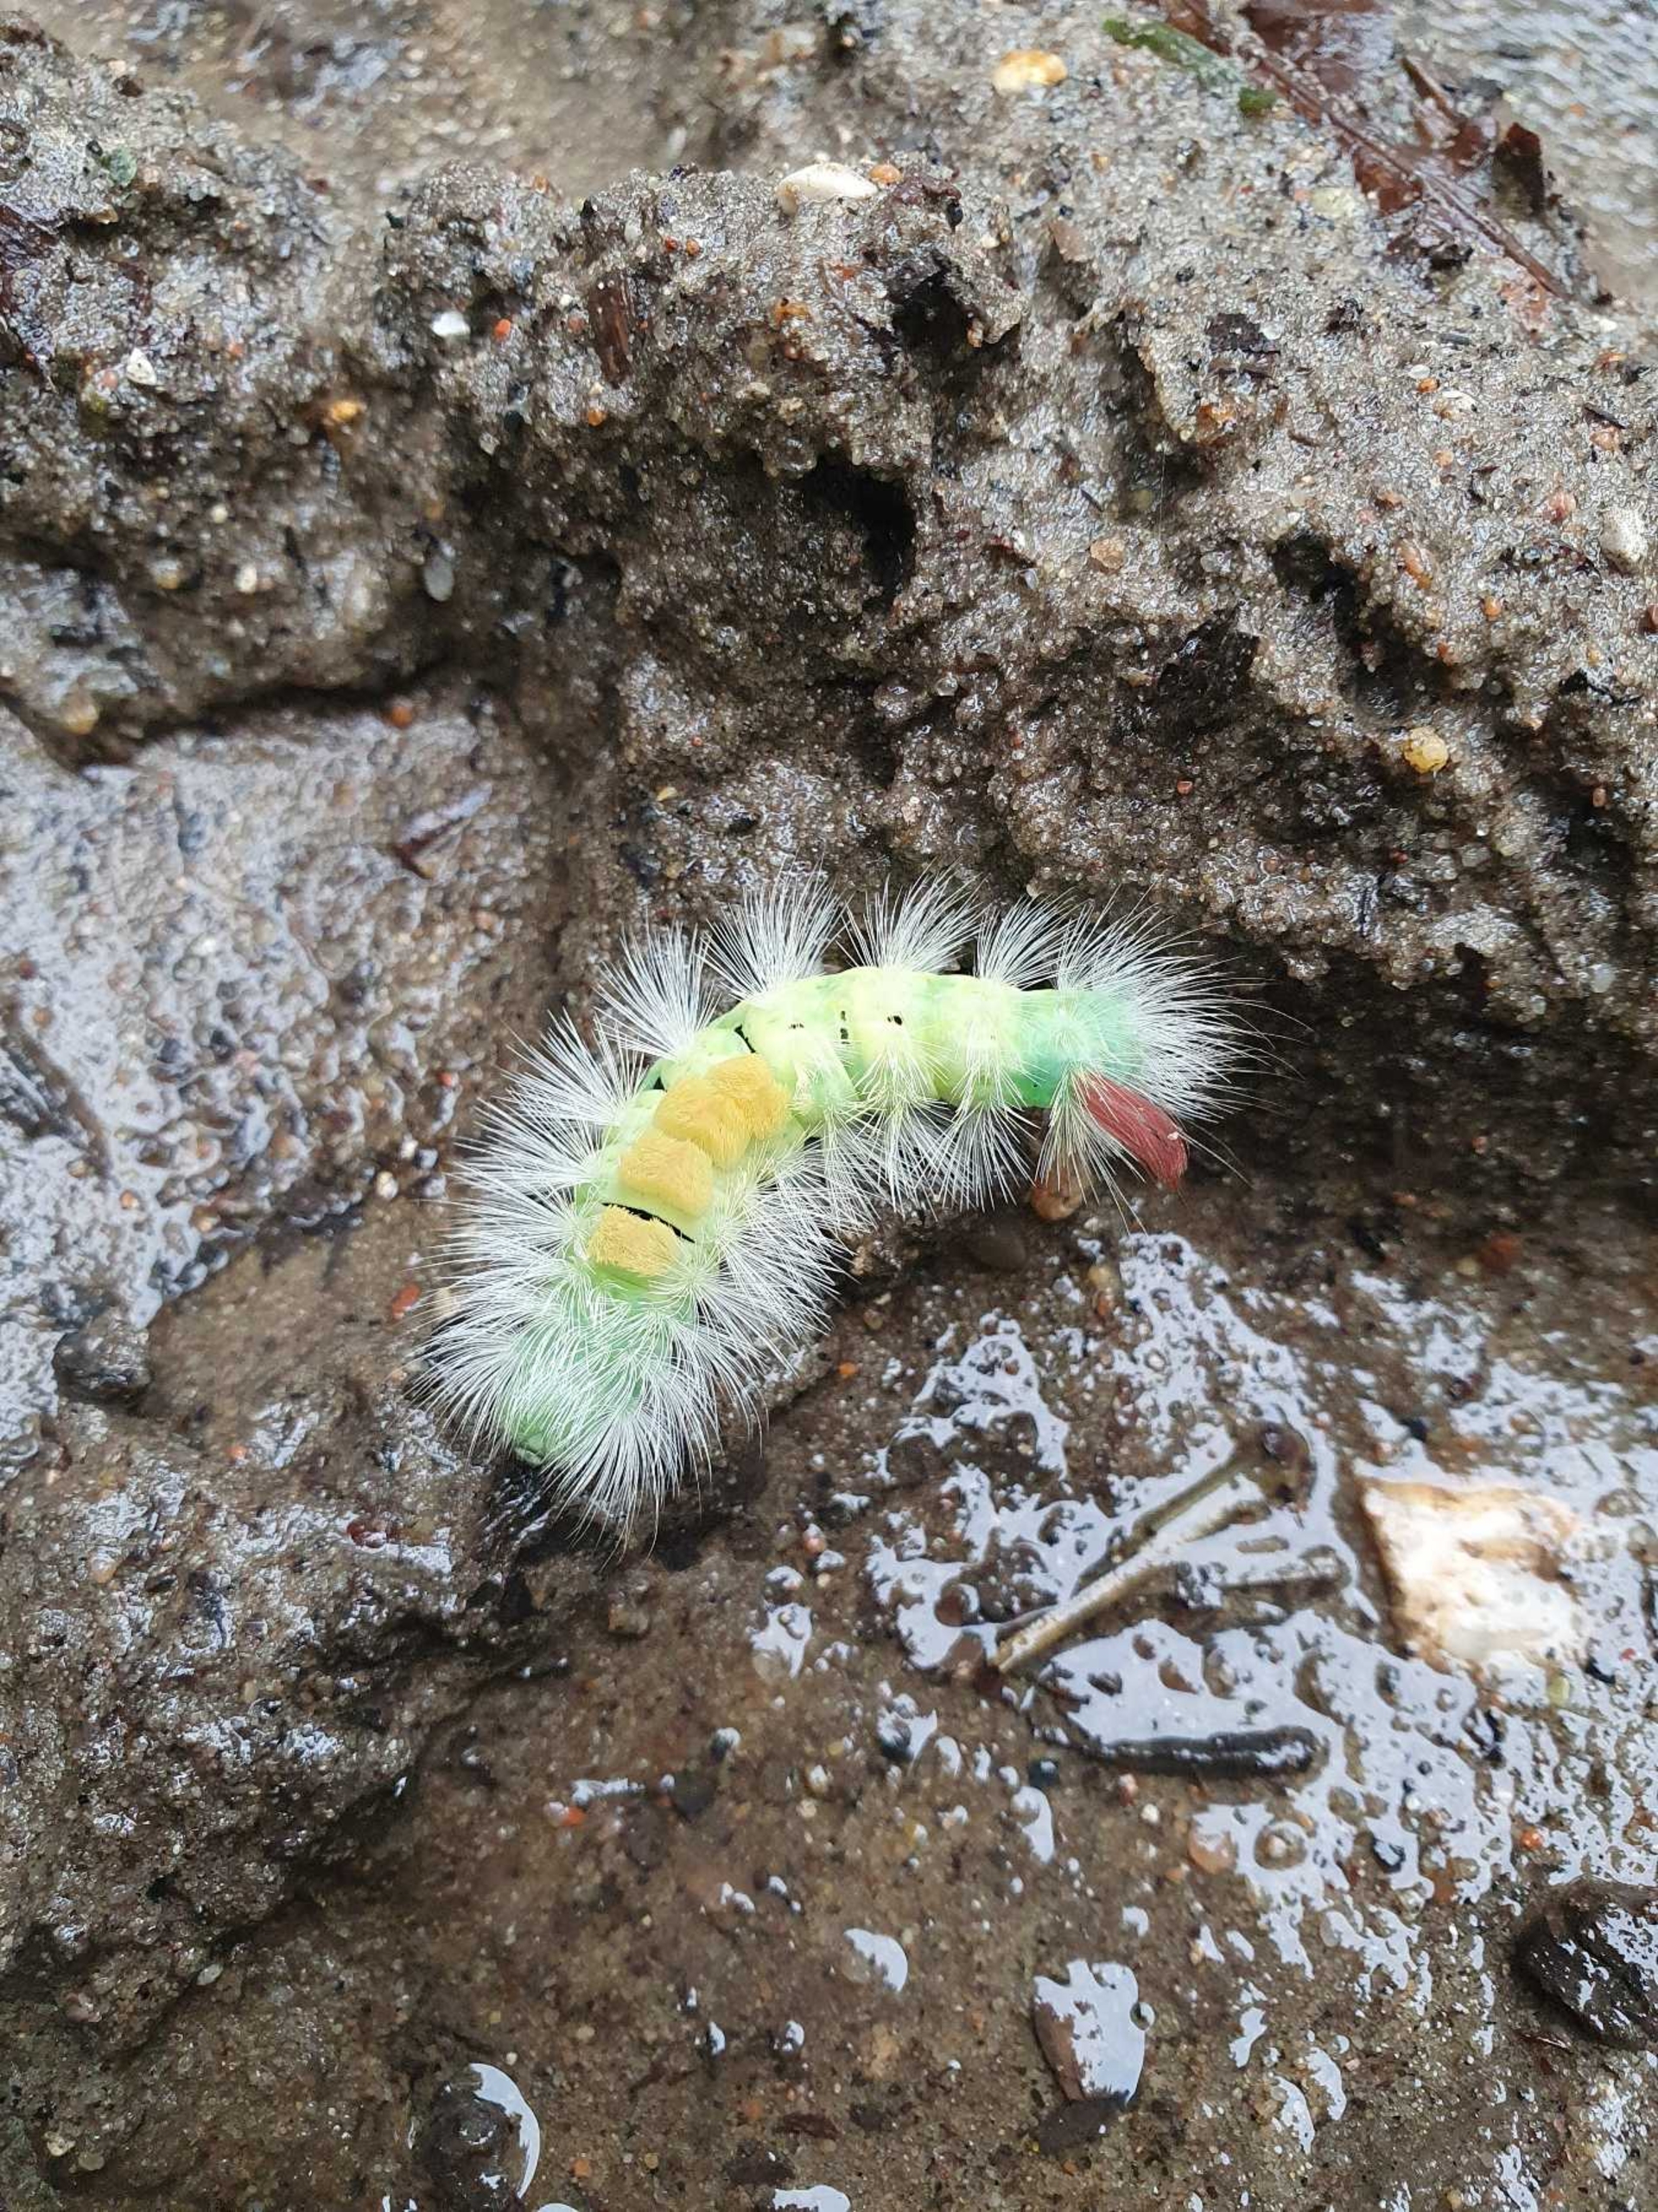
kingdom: Animalia
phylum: Arthropoda
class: Insecta
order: Lepidoptera
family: Erebidae
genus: Calliteara
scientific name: Calliteara pudibunda
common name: Bøgenonne
